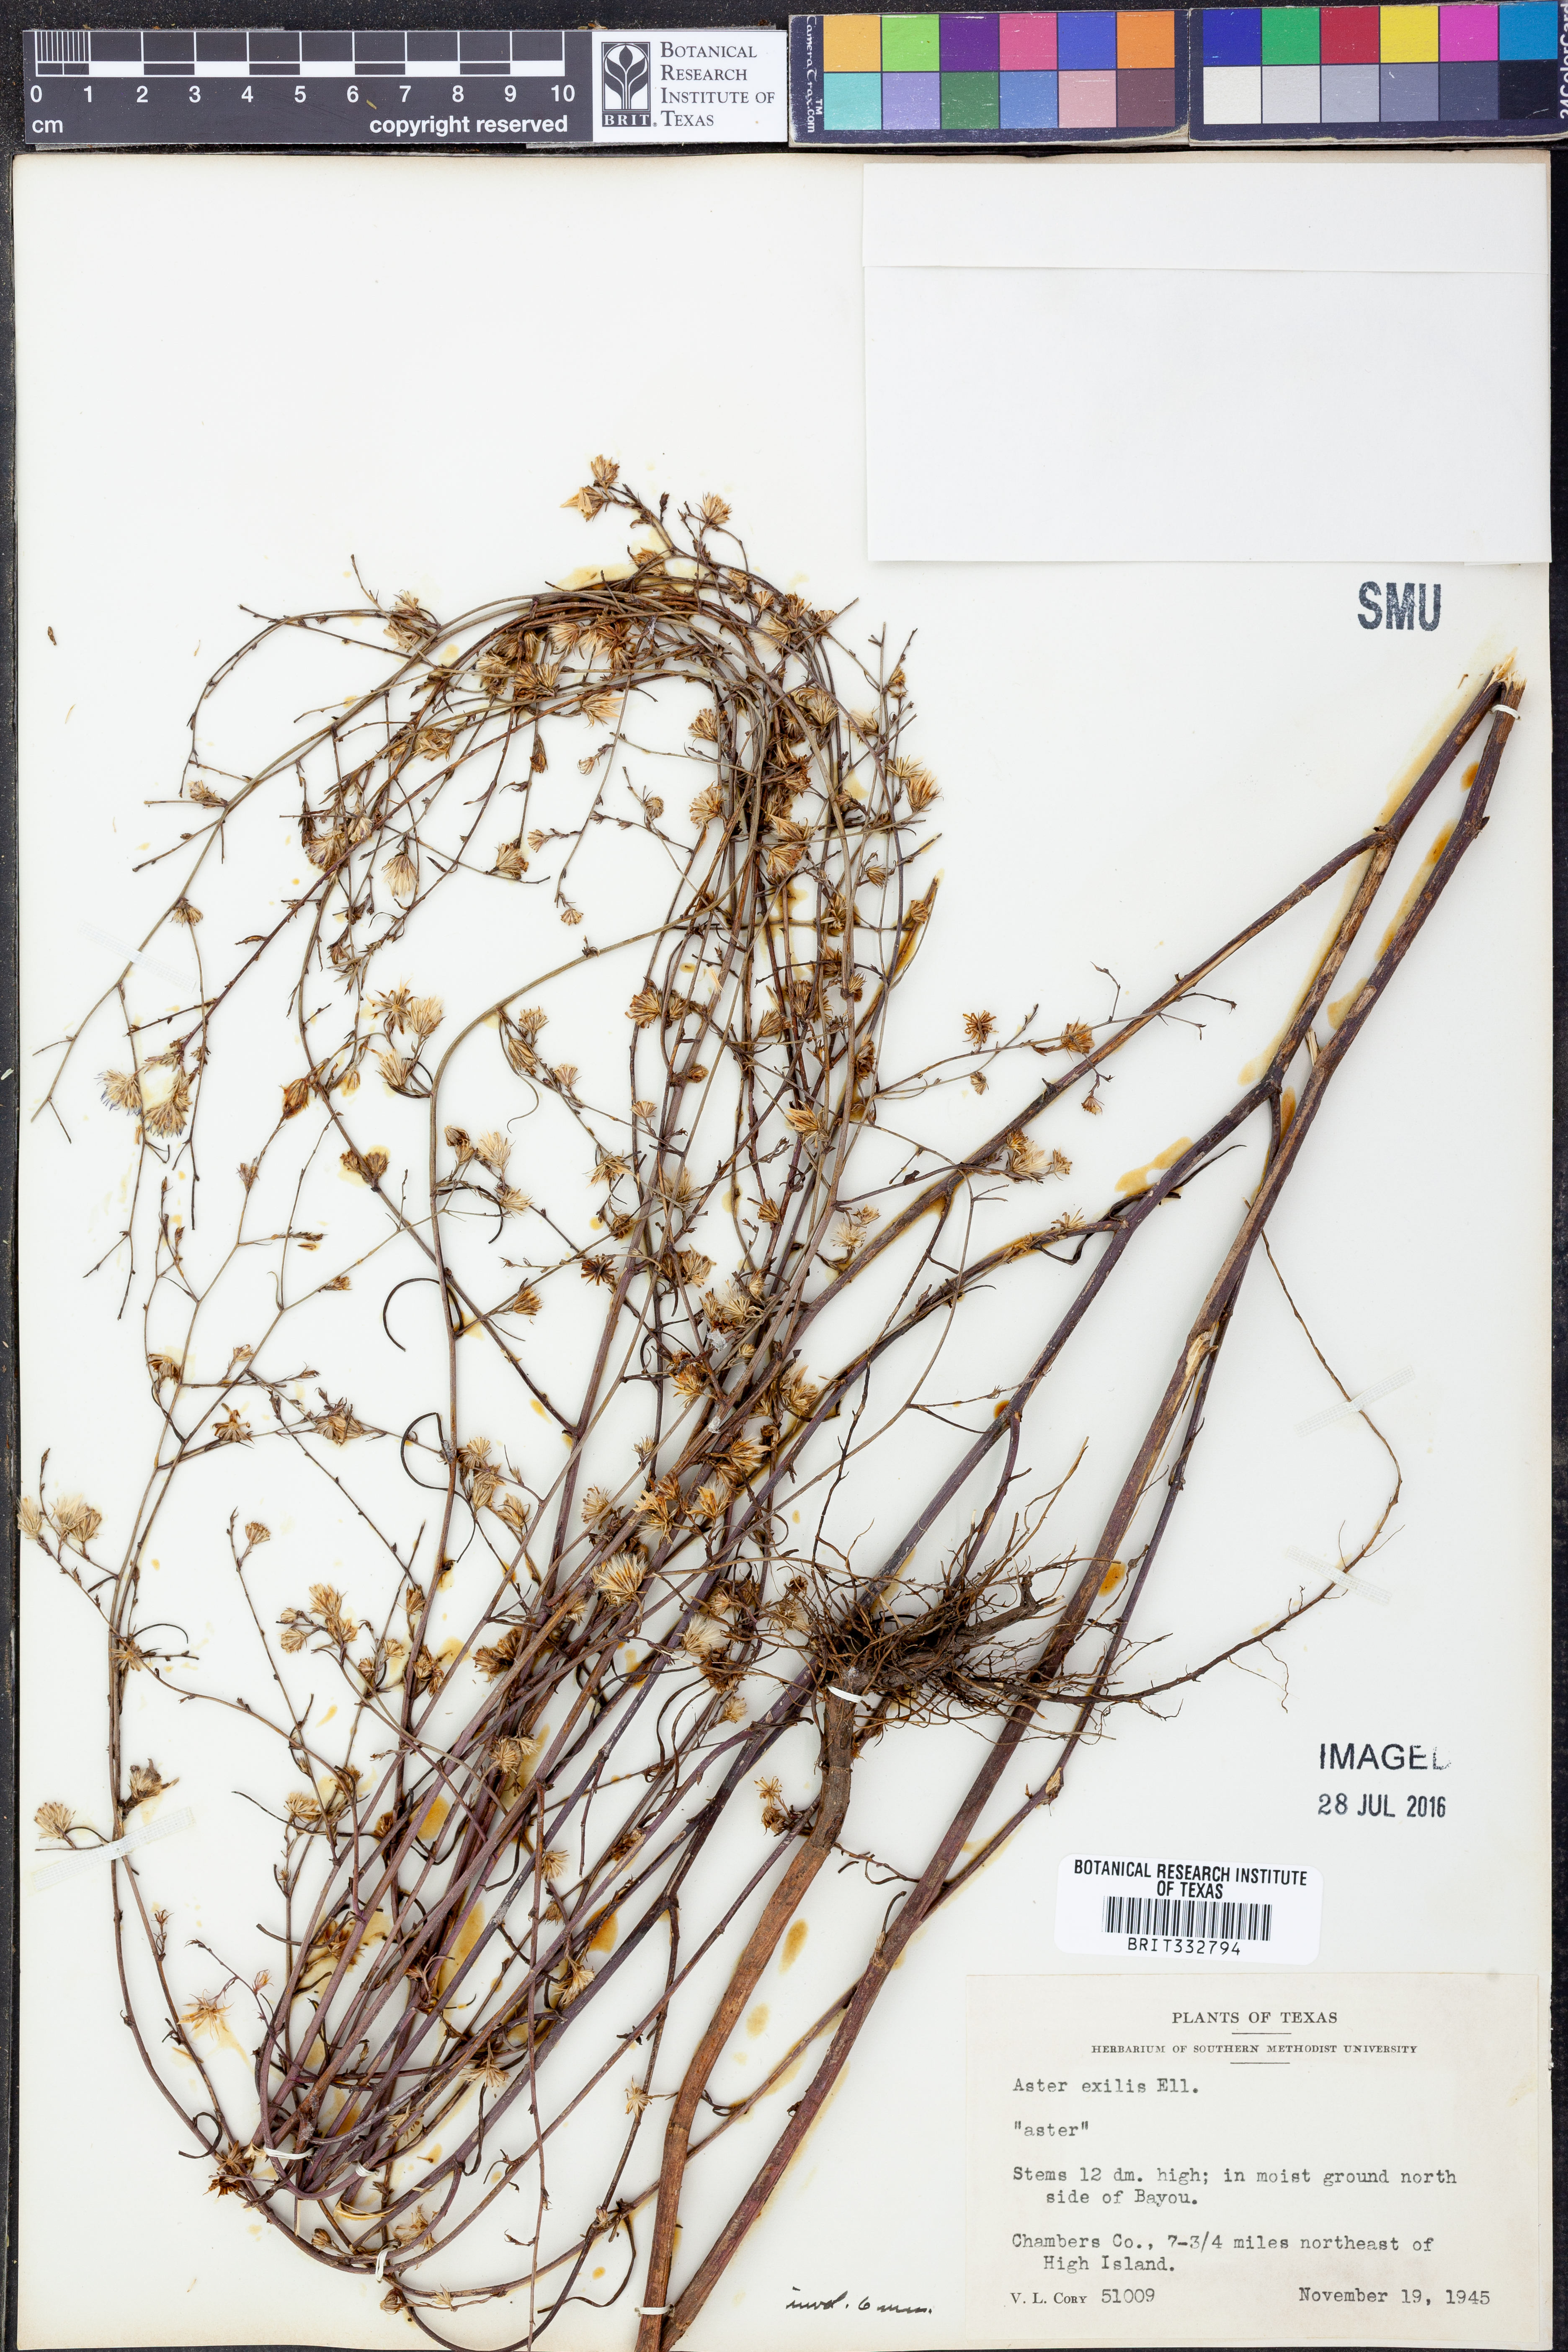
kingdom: Plantae
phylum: Tracheophyta
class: Magnoliopsida
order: Asterales
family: Asteraceae
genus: Symphyotrichum
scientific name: Symphyotrichum expansum
